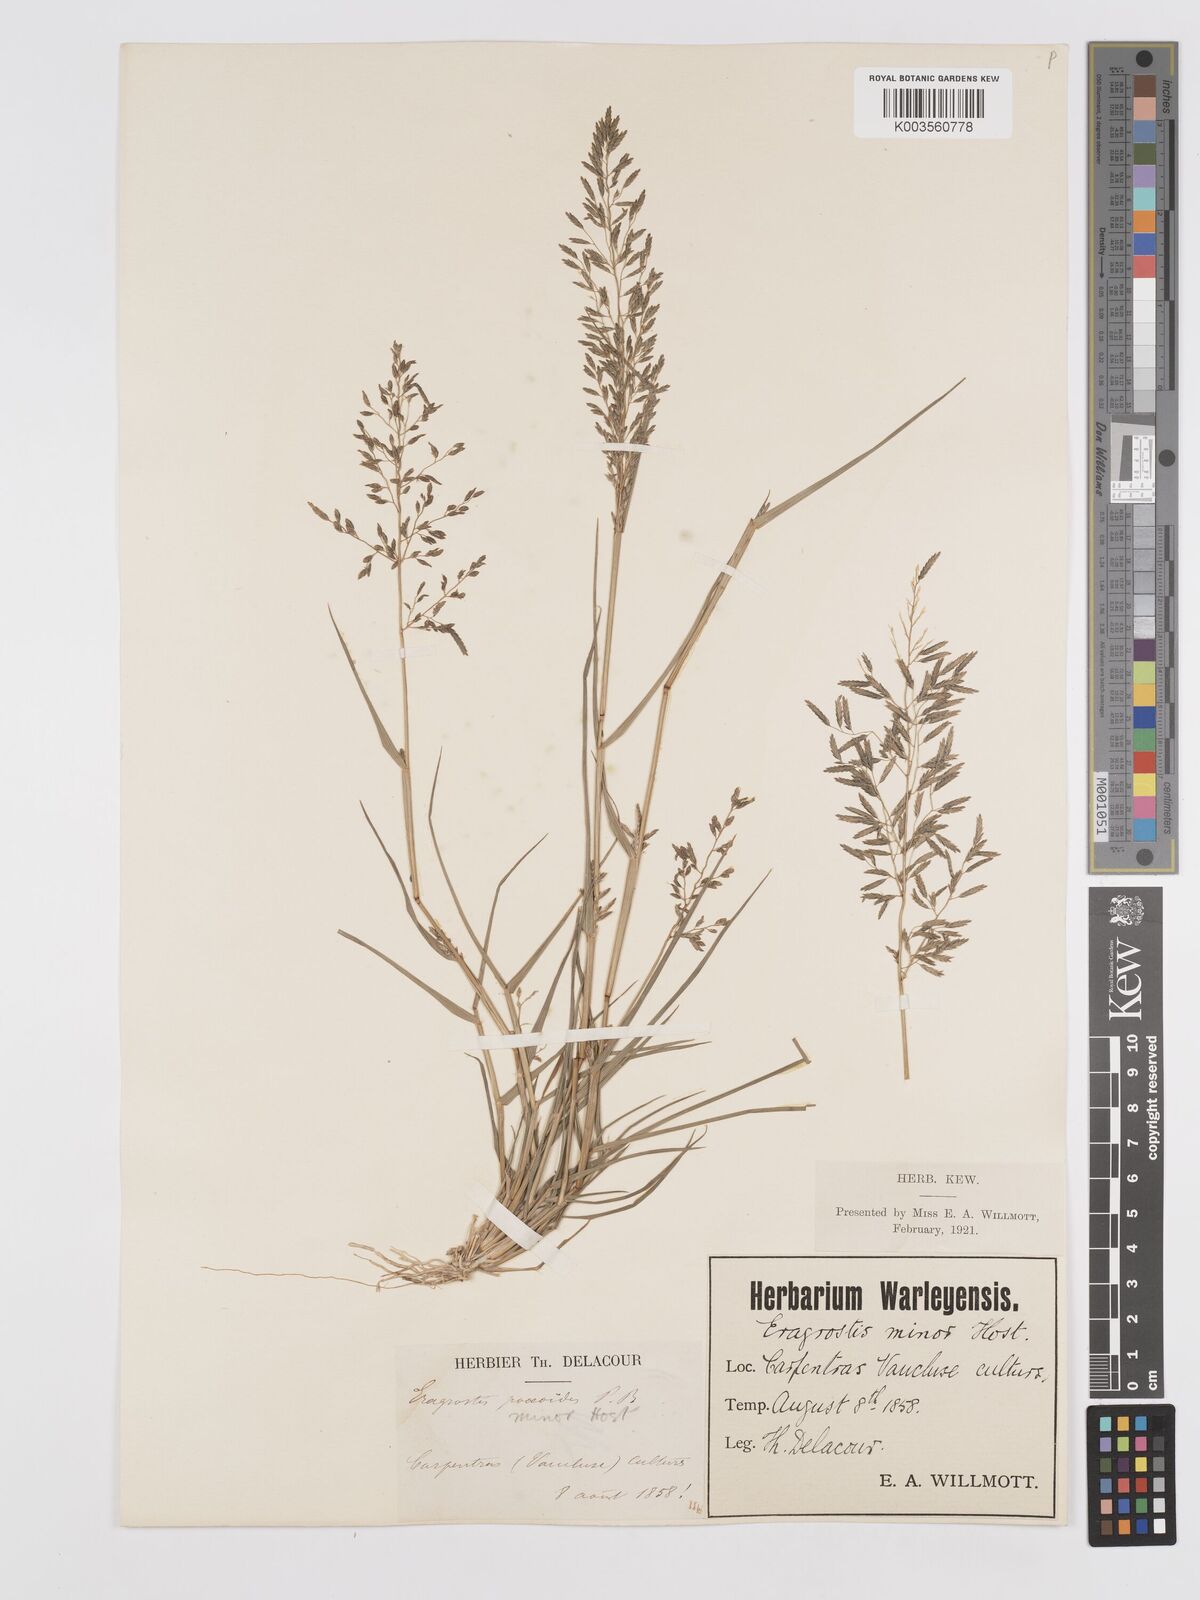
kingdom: Plantae
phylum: Tracheophyta
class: Liliopsida
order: Poales
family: Poaceae
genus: Eragrostis
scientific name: Eragrostis barrelieri
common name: Mediterranean lovegrass
